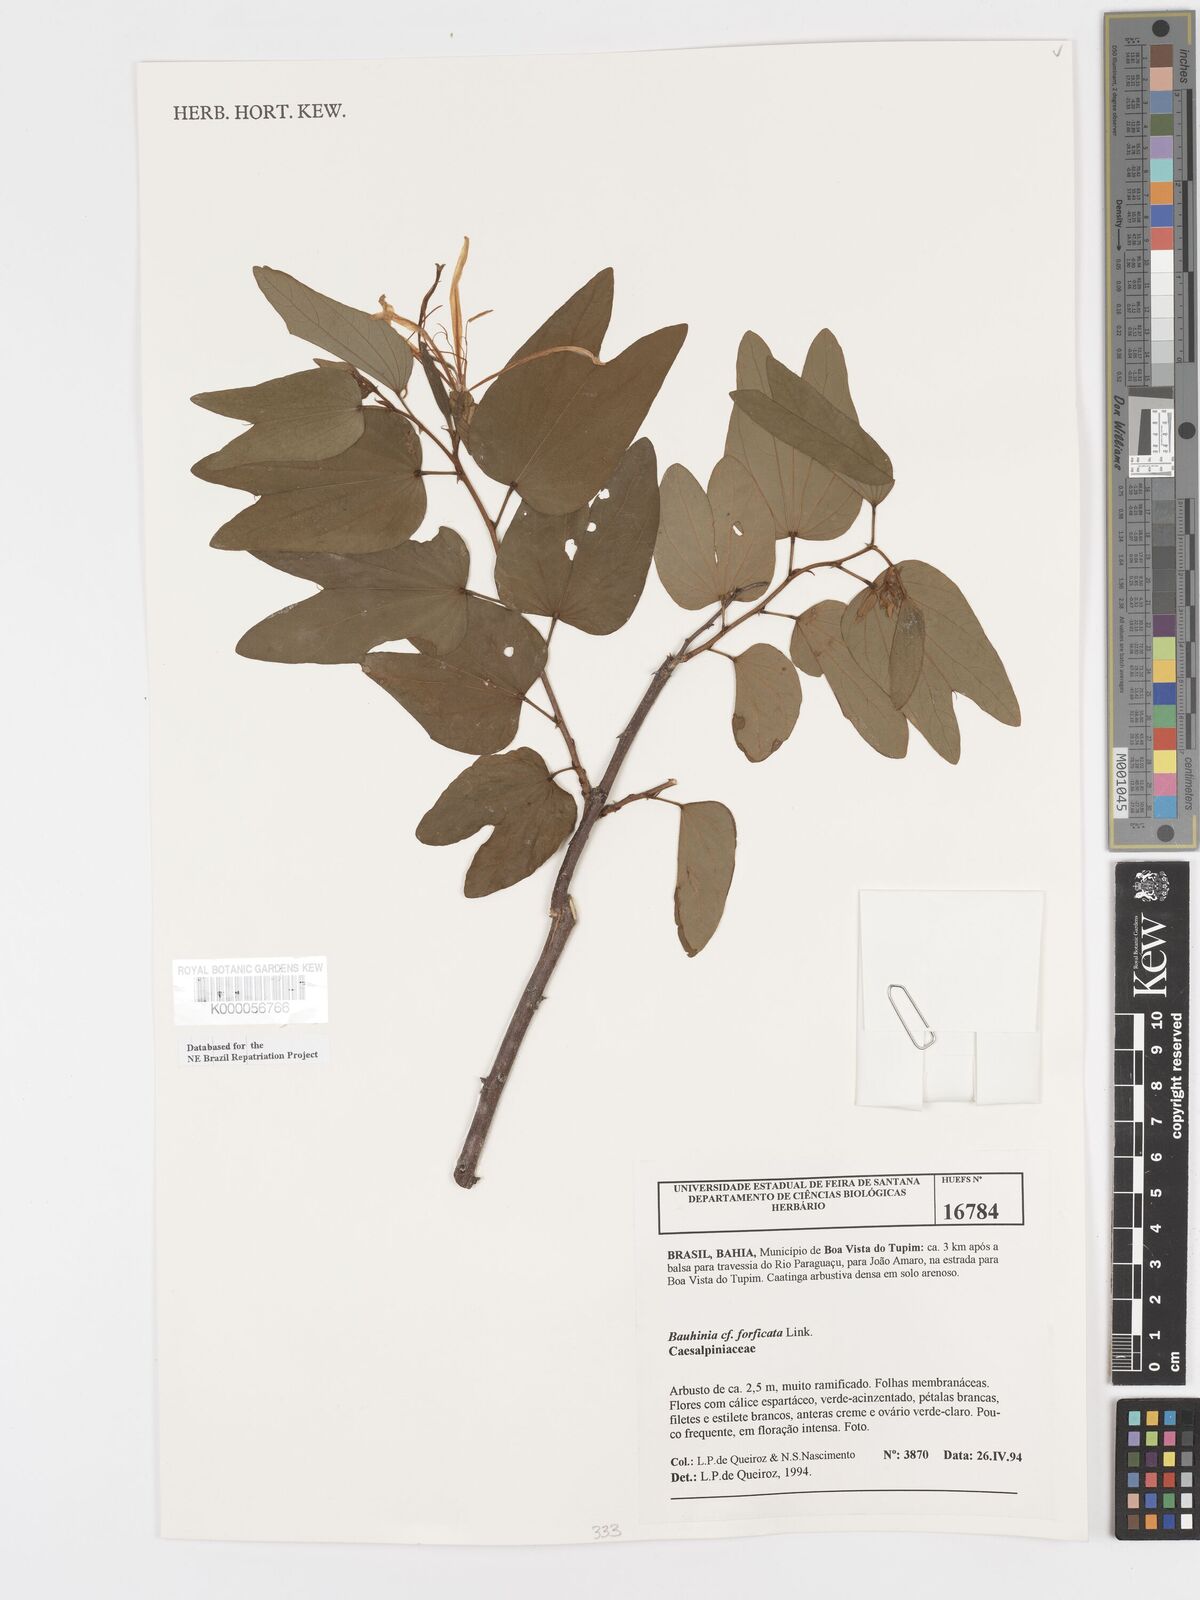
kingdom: Plantae
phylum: Tracheophyta
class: Magnoliopsida
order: Fabales
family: Fabaceae
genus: Bauhinia
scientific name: Bauhinia
